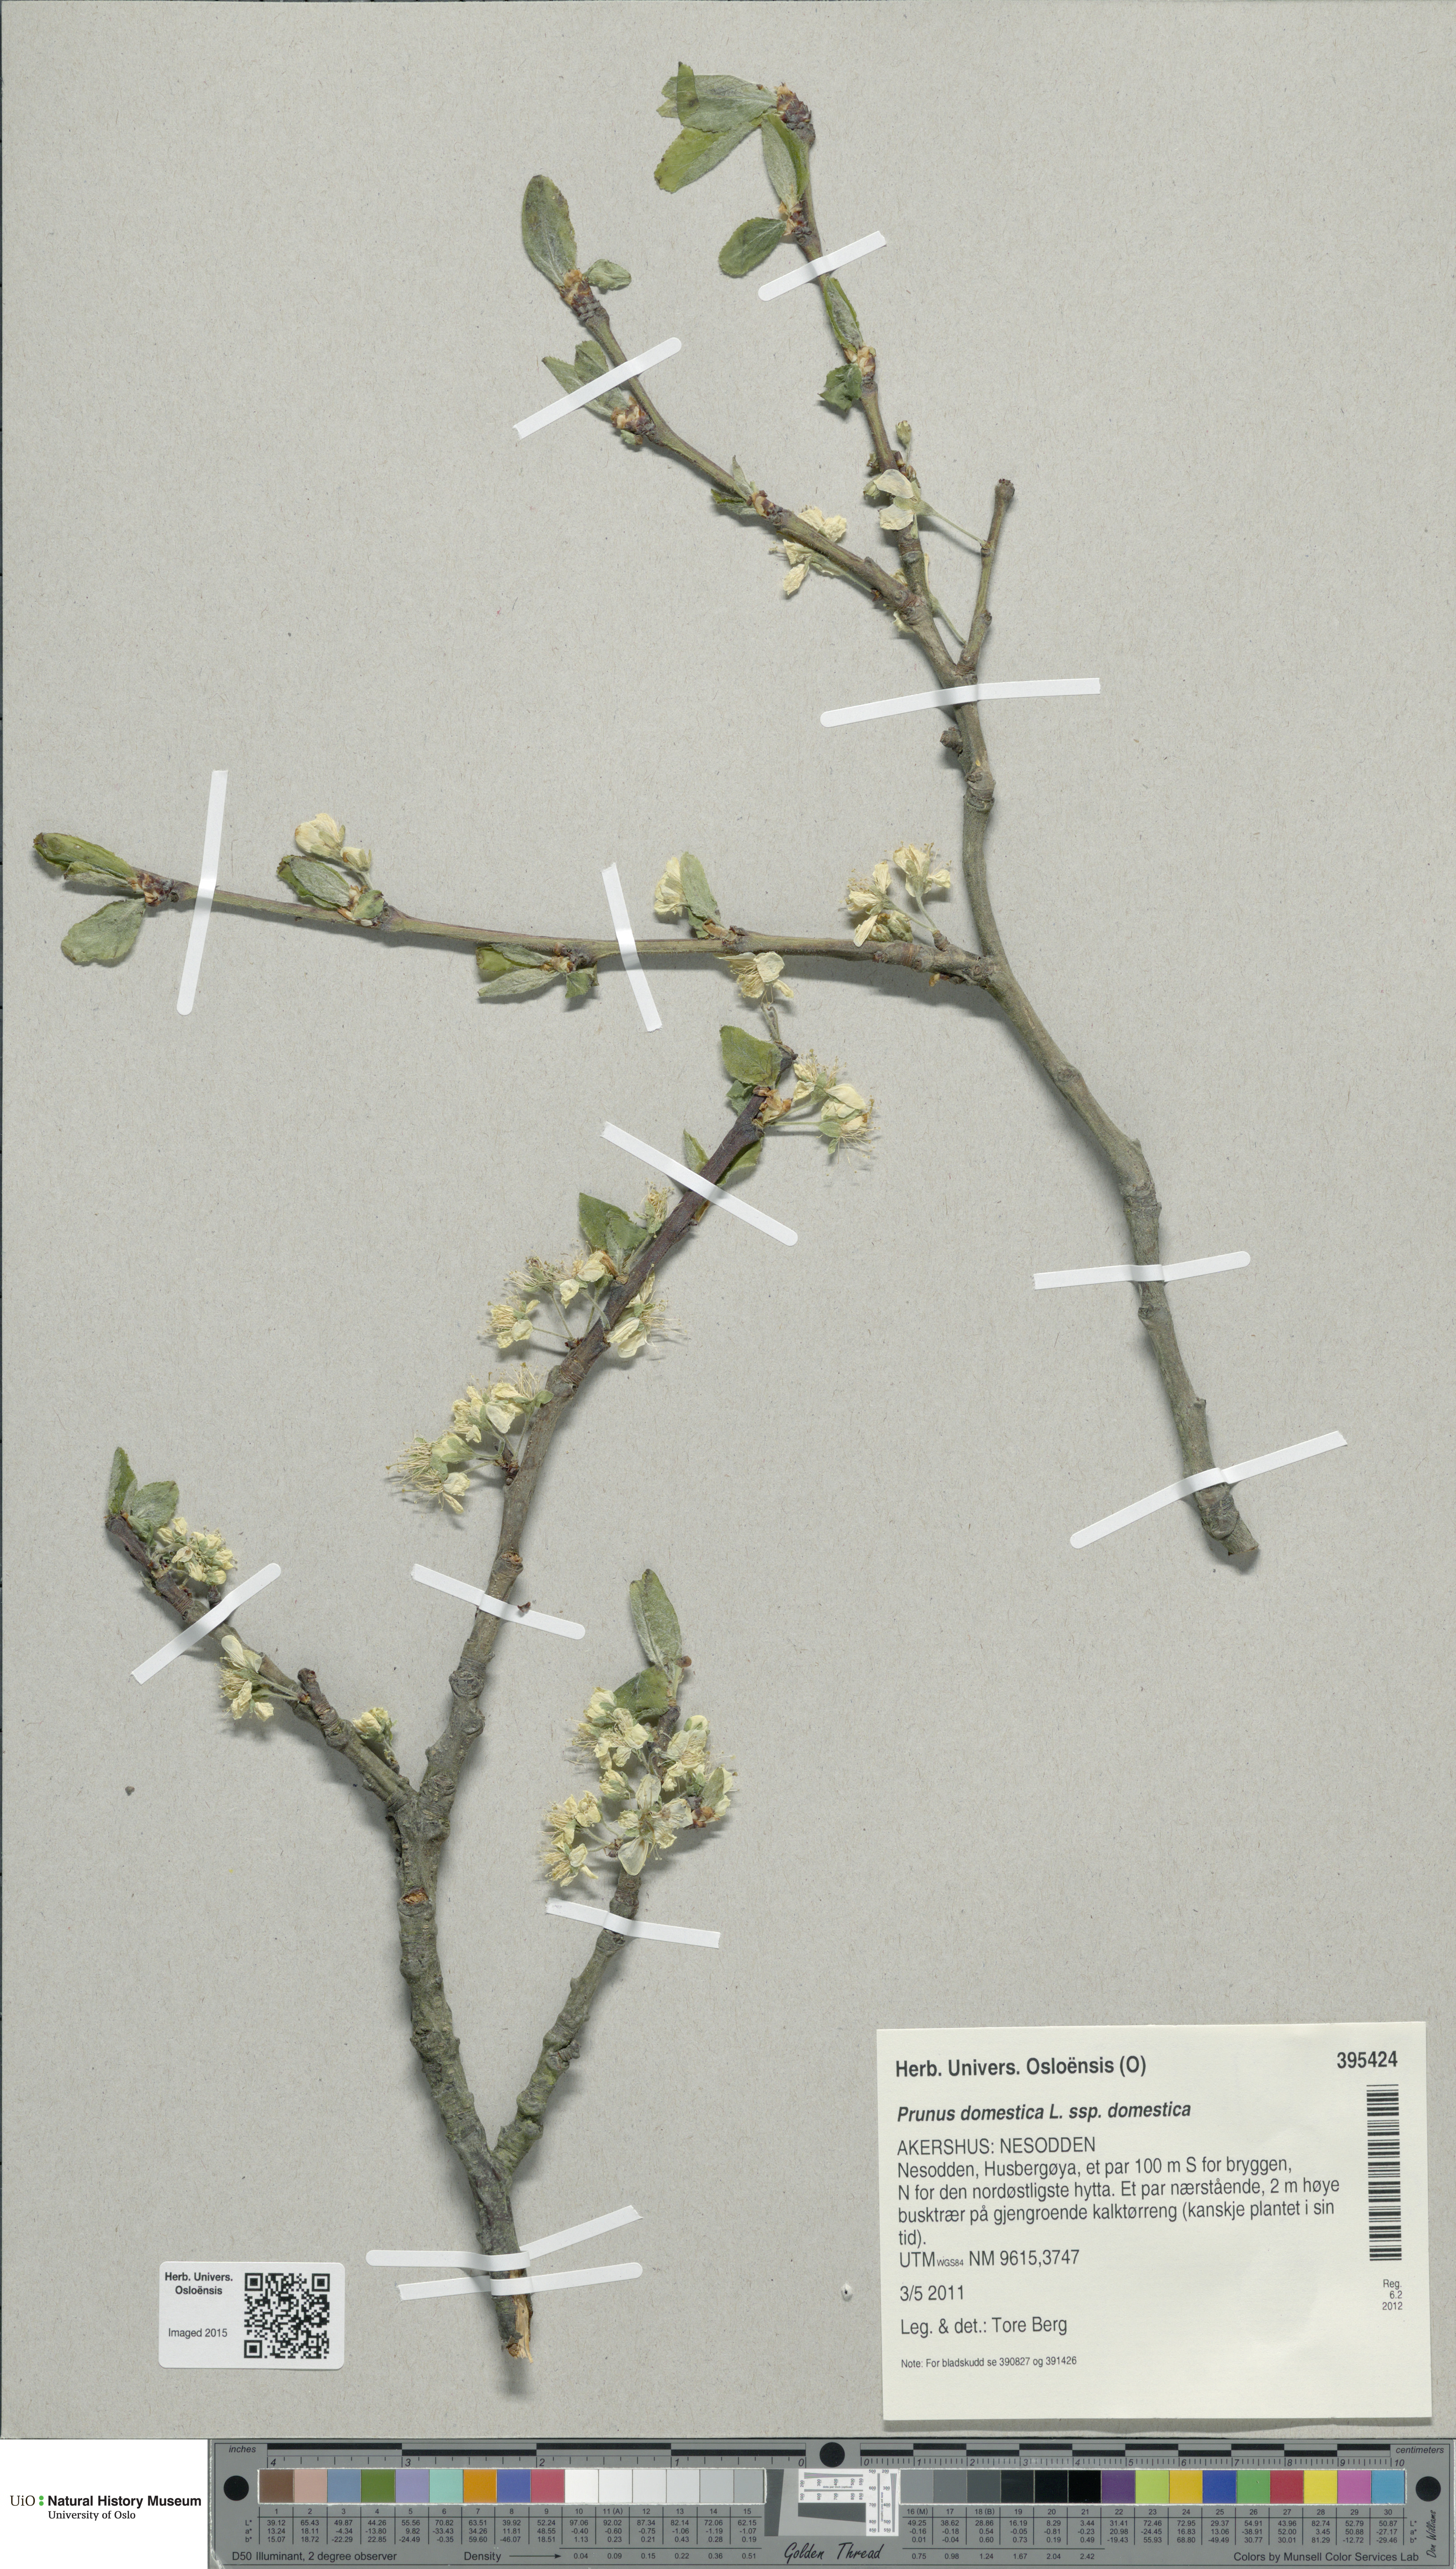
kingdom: Plantae
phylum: Tracheophyta
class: Magnoliopsida
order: Rosales
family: Rosaceae
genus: Prunus
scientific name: Prunus domestica
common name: Wild plum
